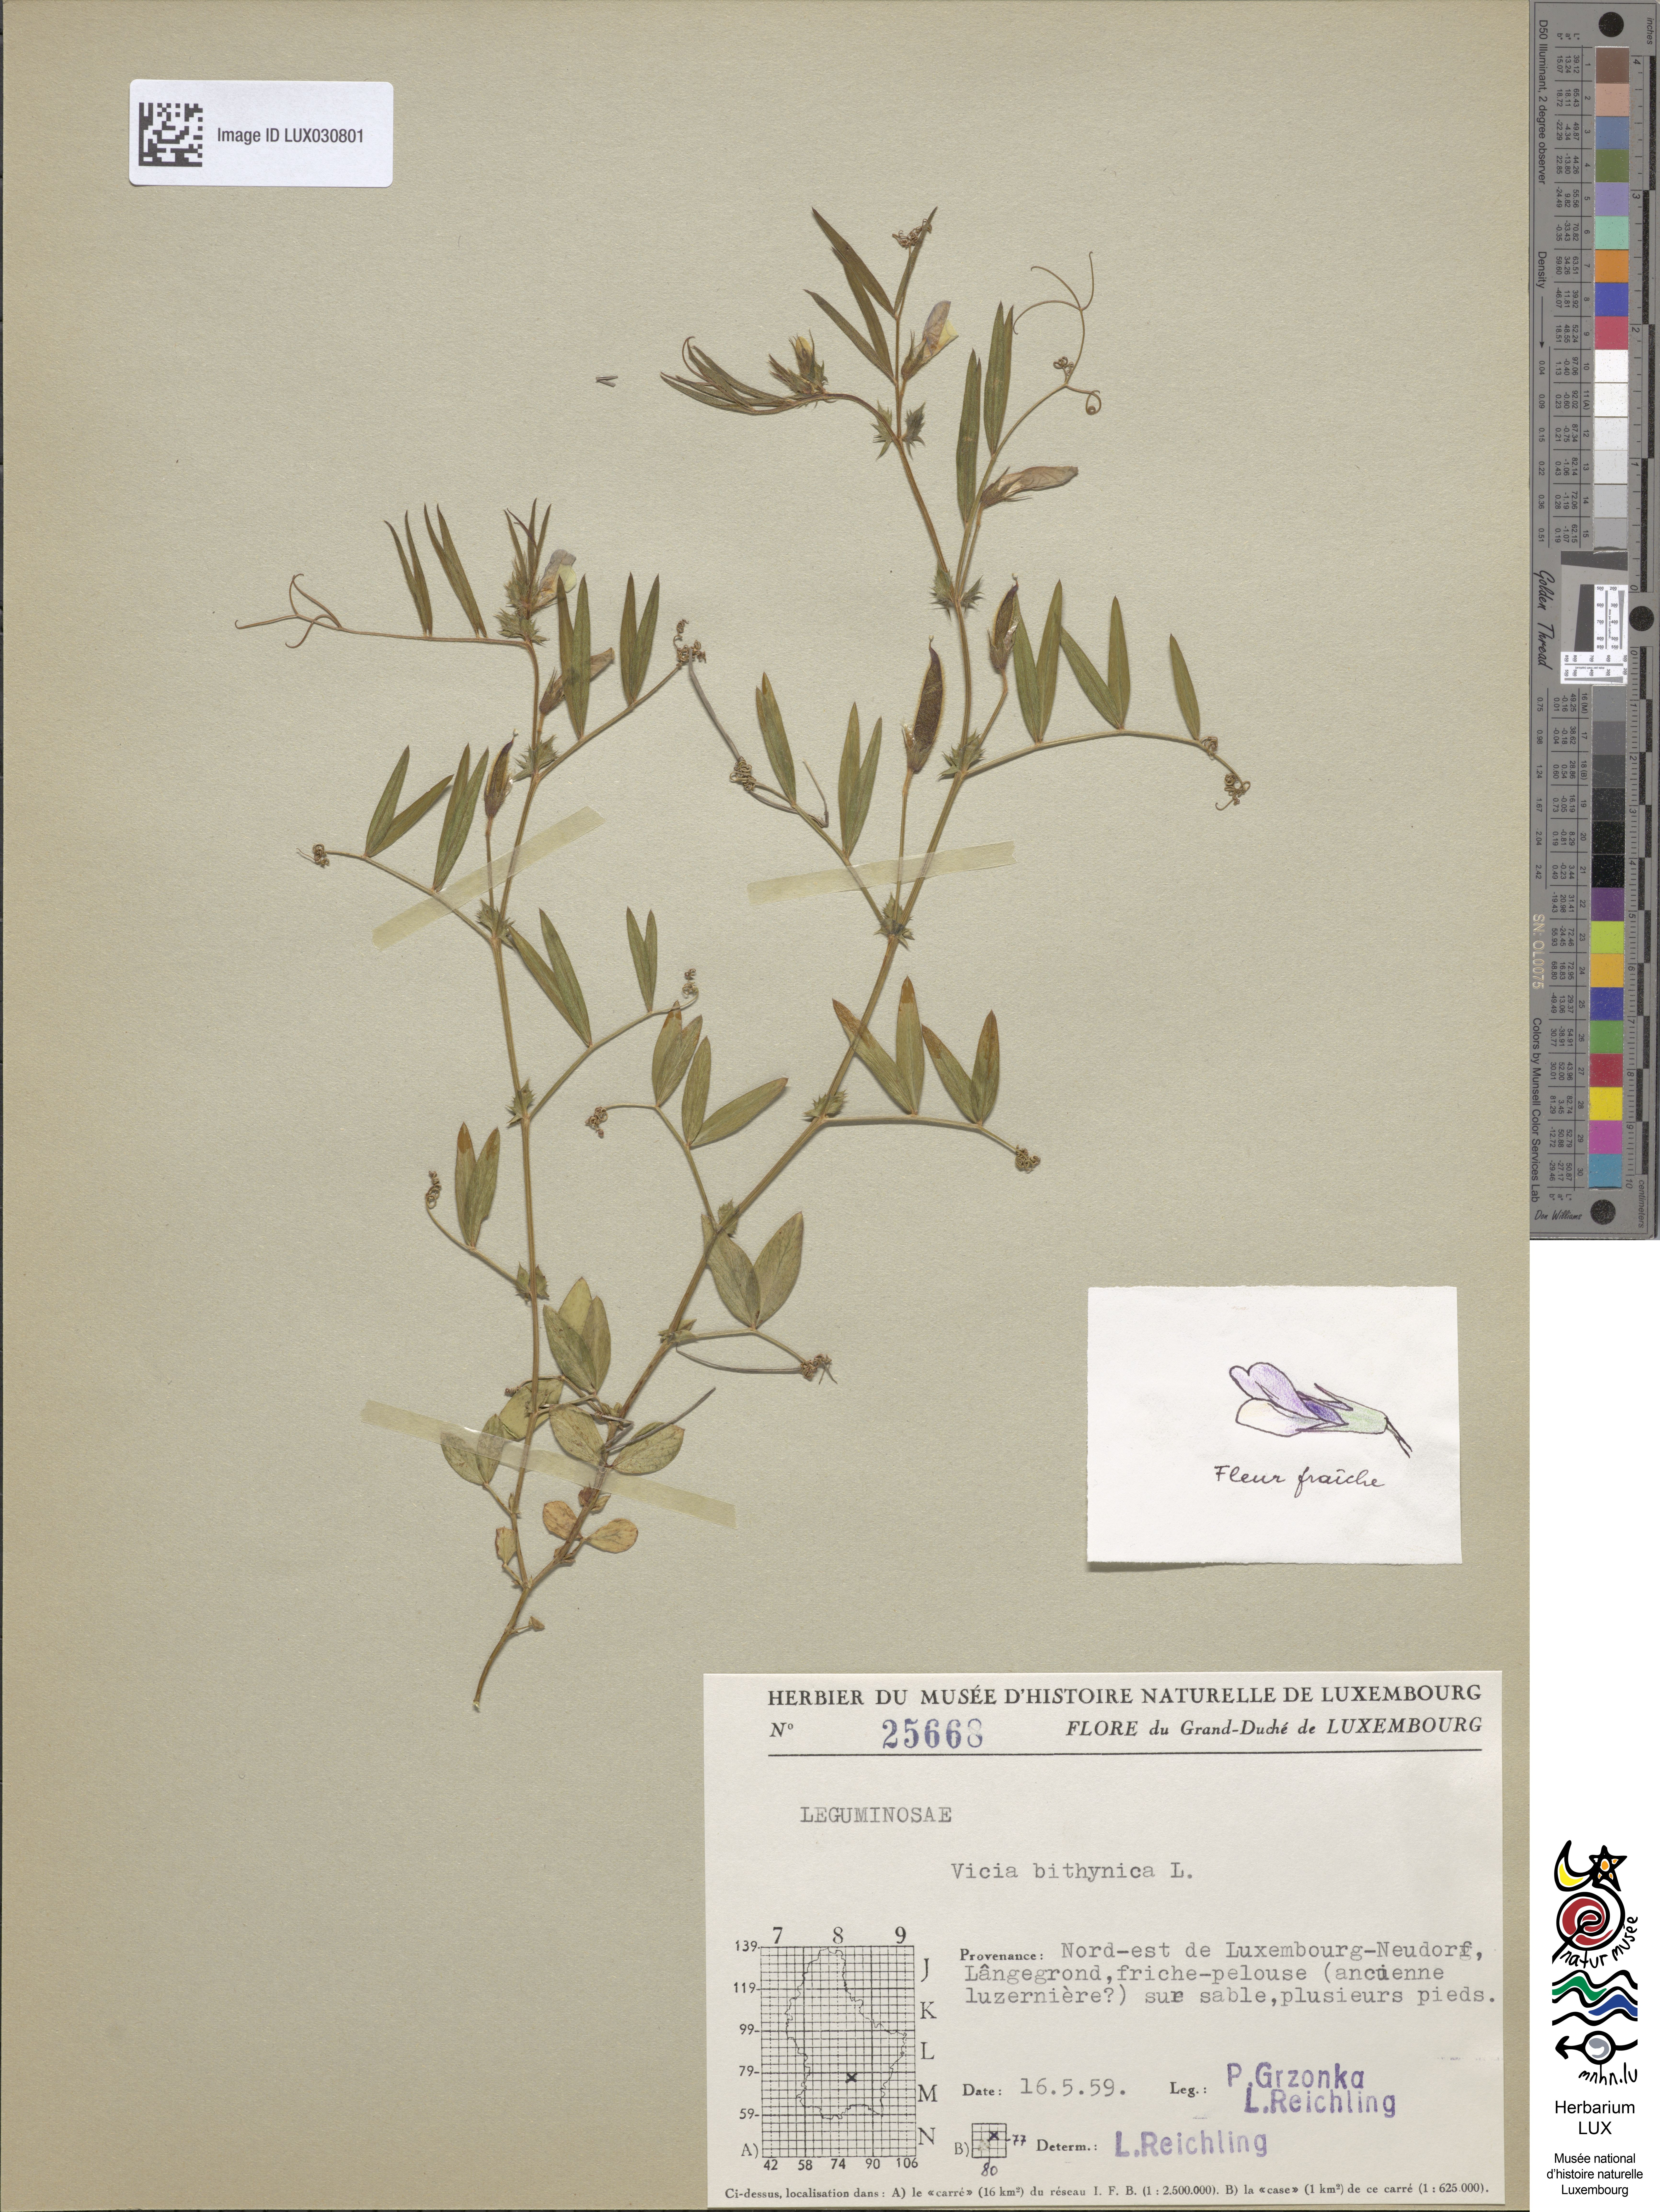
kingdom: Plantae
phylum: Tracheophyta
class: Magnoliopsida
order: Fabales
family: Fabaceae
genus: Vicia
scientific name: Vicia bithynica
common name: Bithynian vetch
